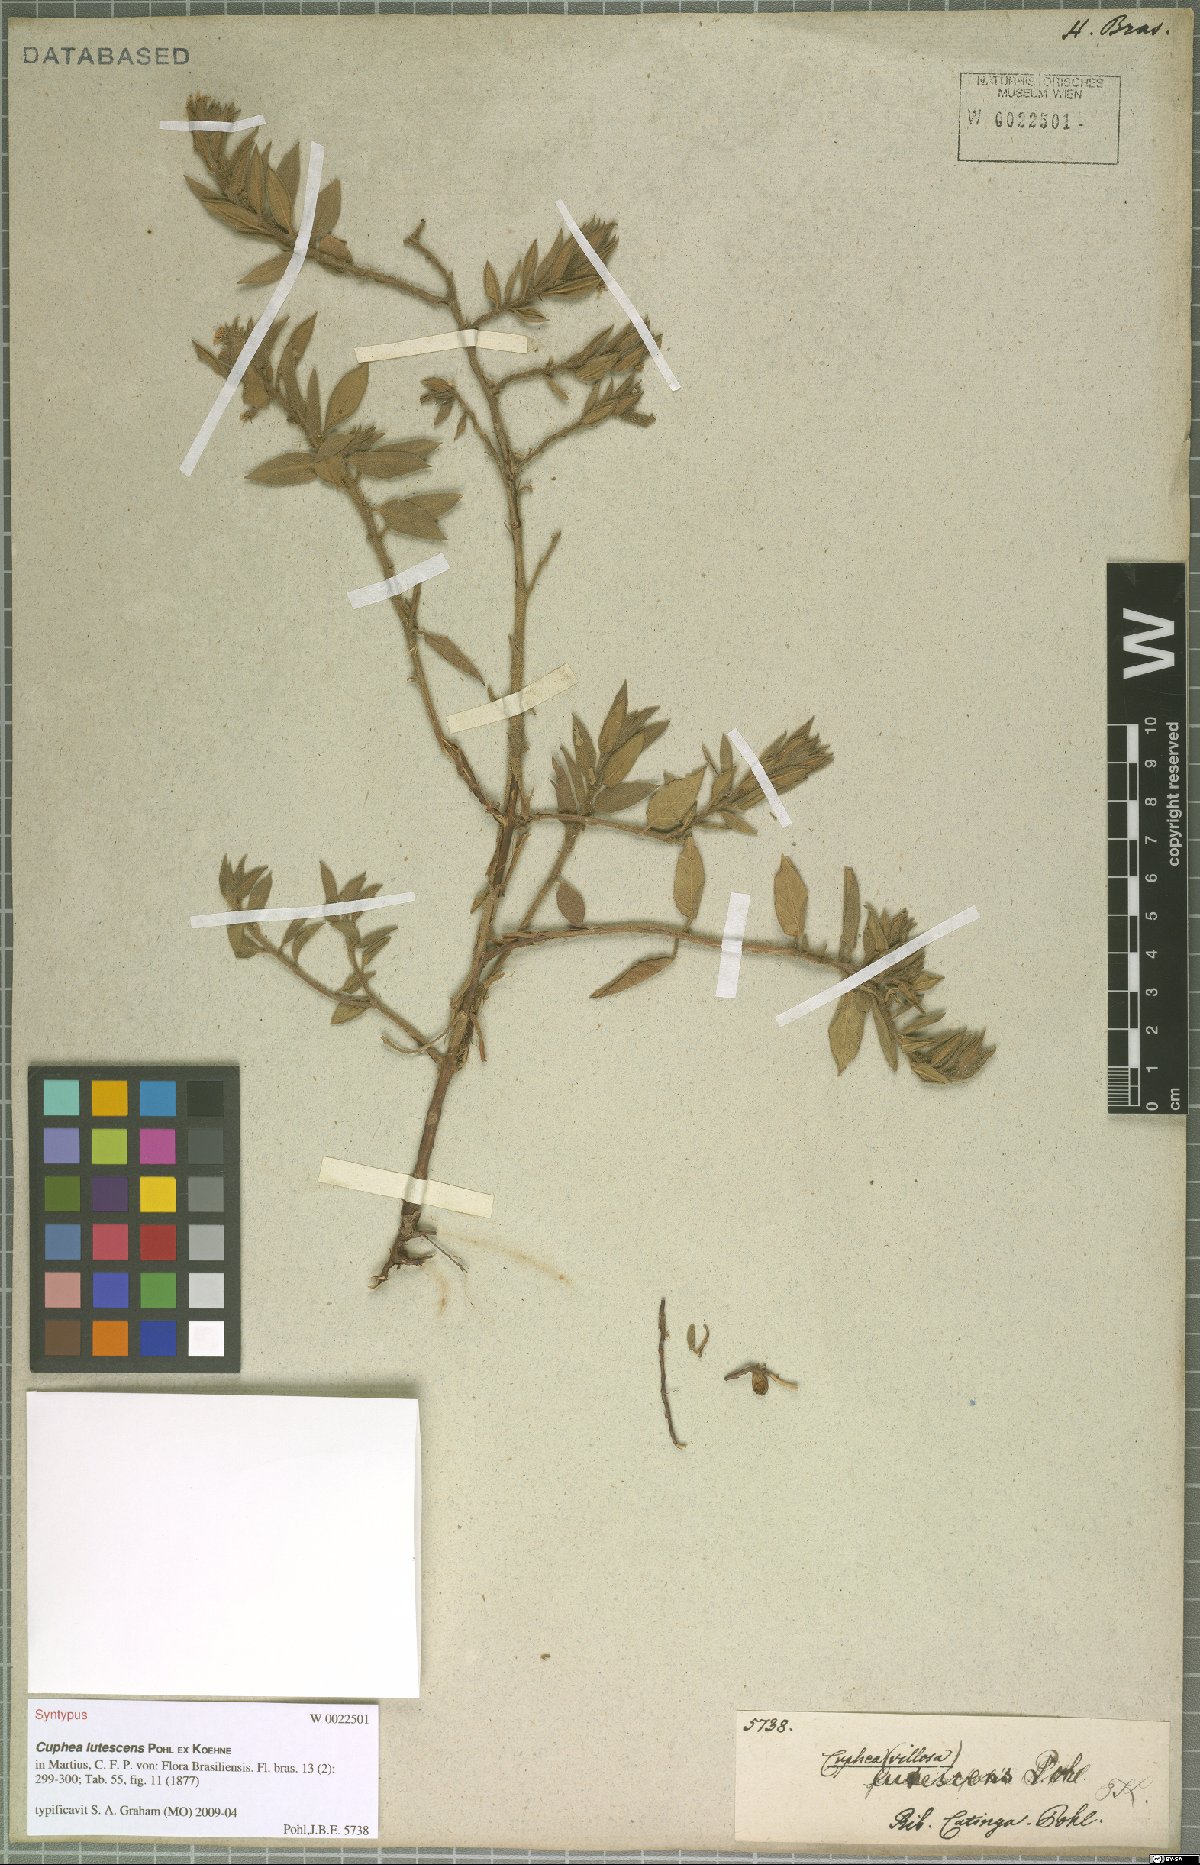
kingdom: Plantae
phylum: Tracheophyta
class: Magnoliopsida
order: Myrtales
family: Lythraceae
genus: Cuphea
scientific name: Cuphea lutescens
